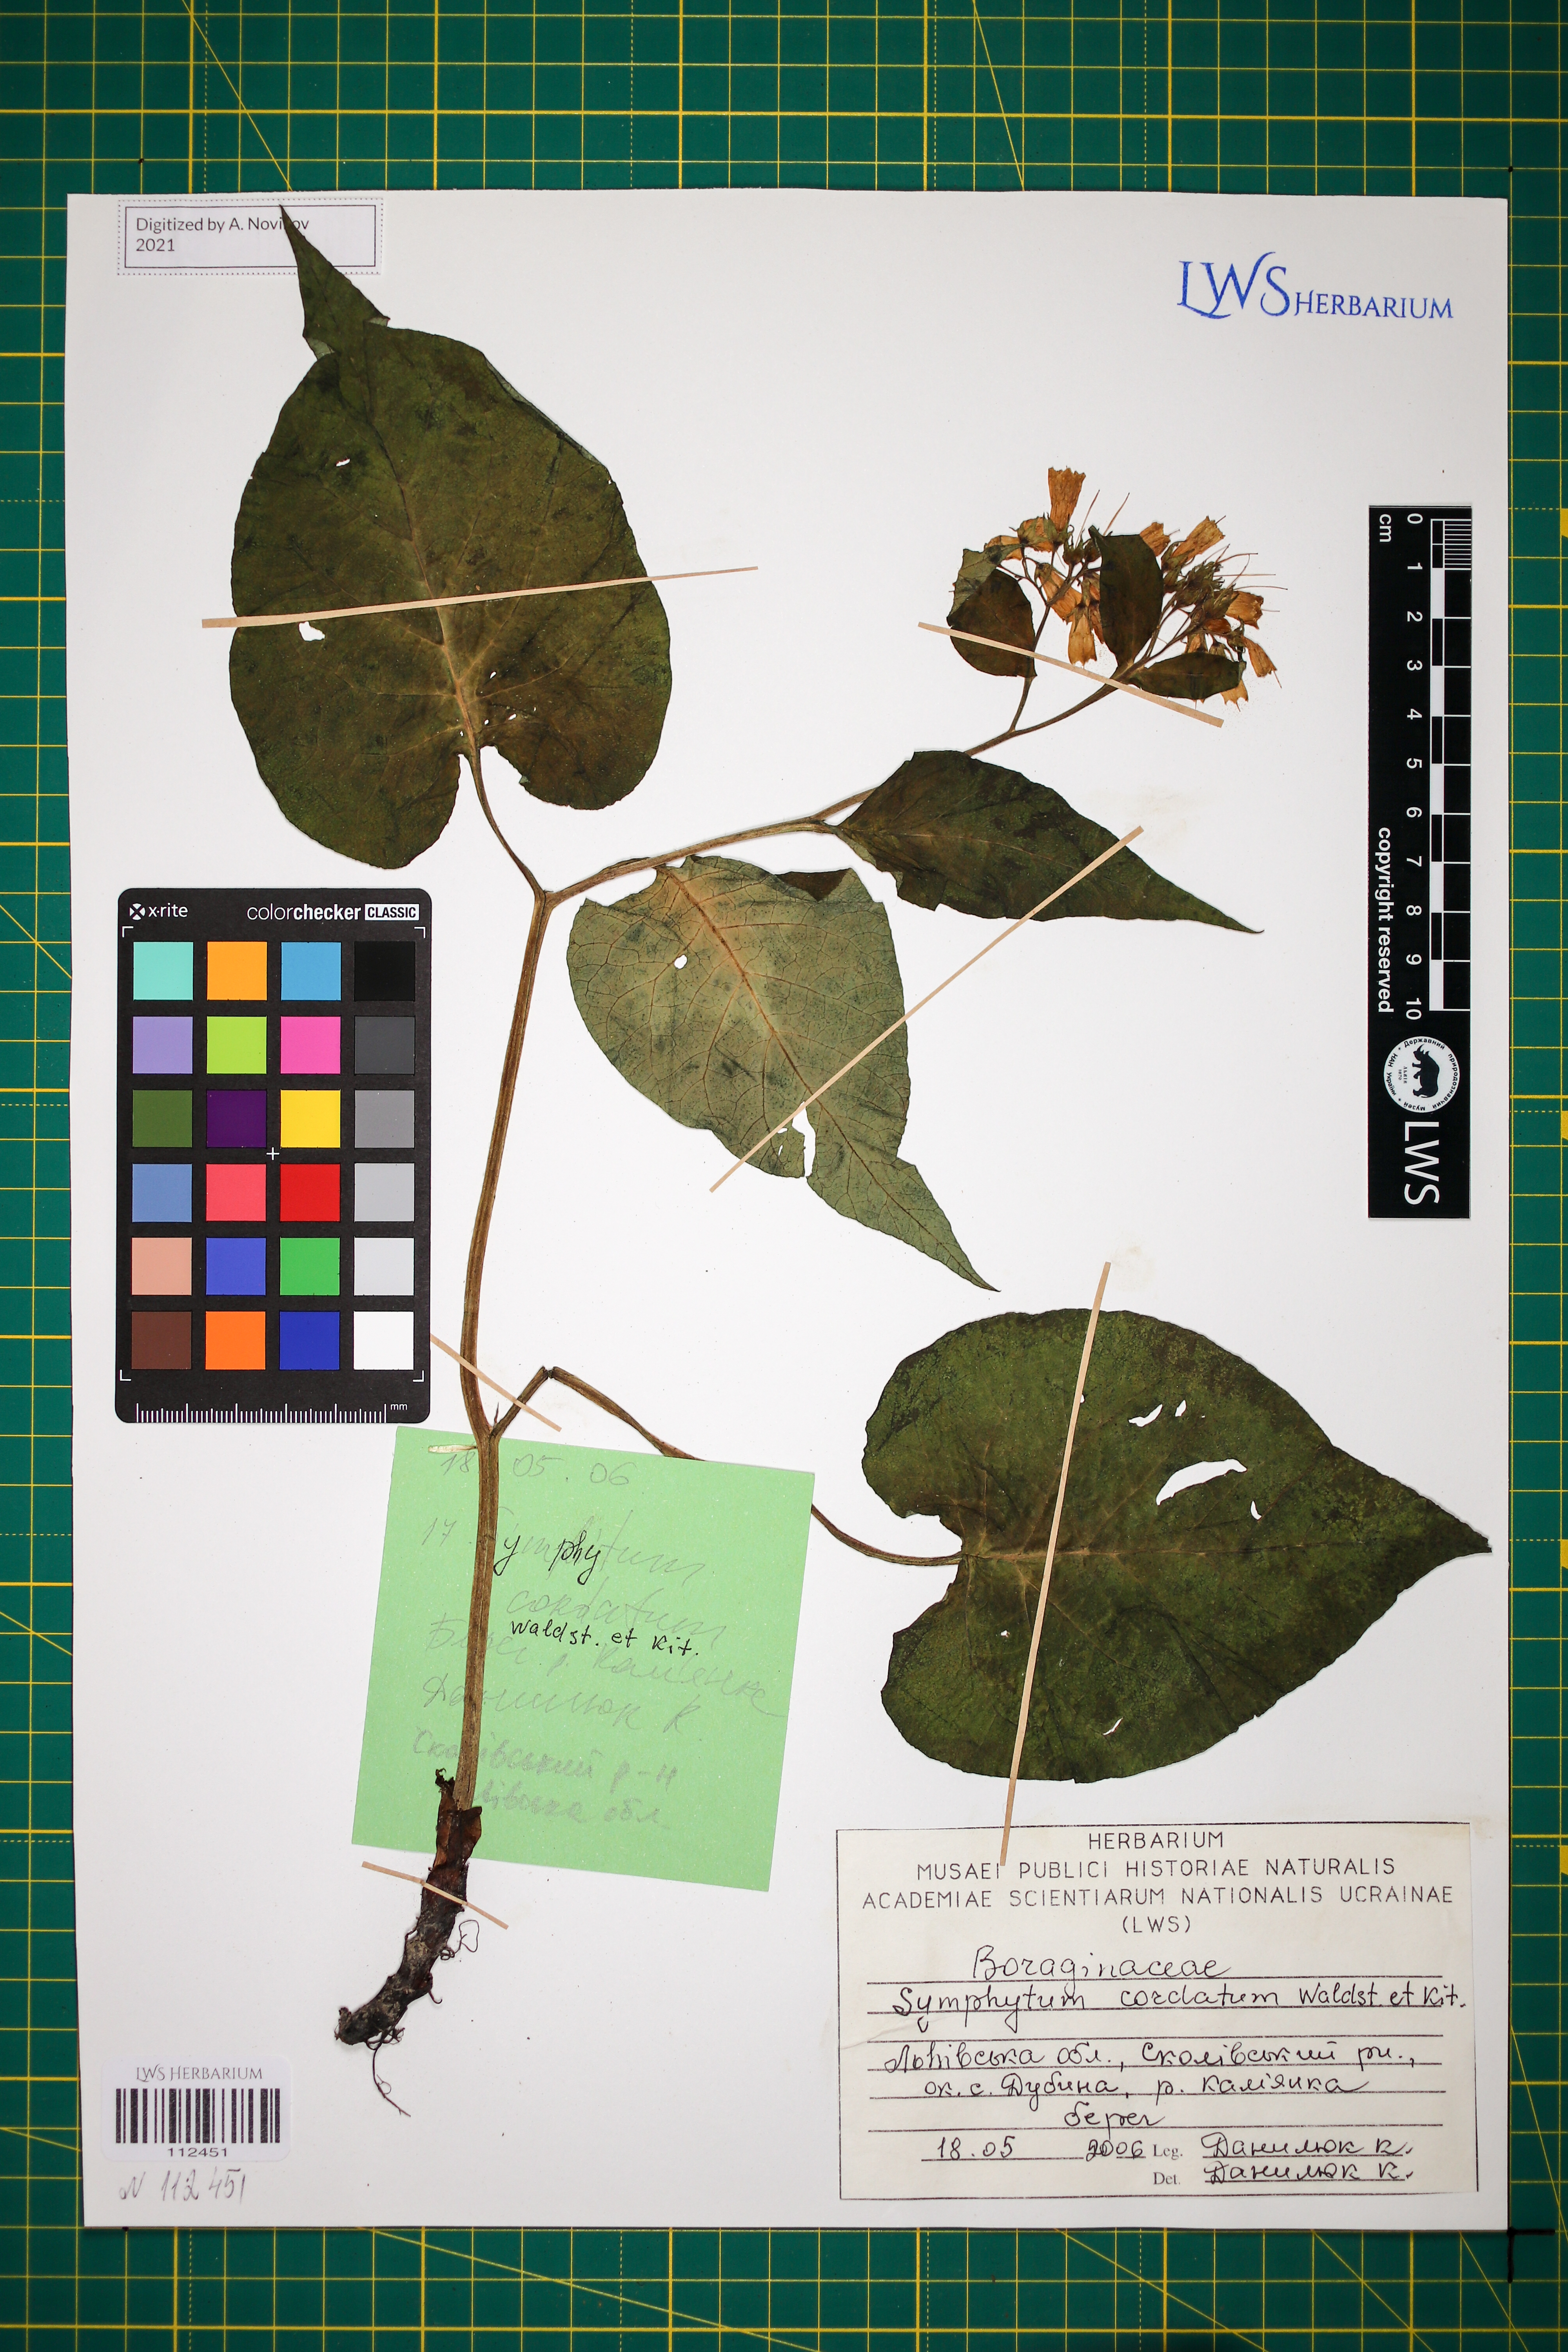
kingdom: Plantae
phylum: Tracheophyta
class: Magnoliopsida
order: Boraginales
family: Boraginaceae
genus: Symphytum
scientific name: Symphytum cordatum
